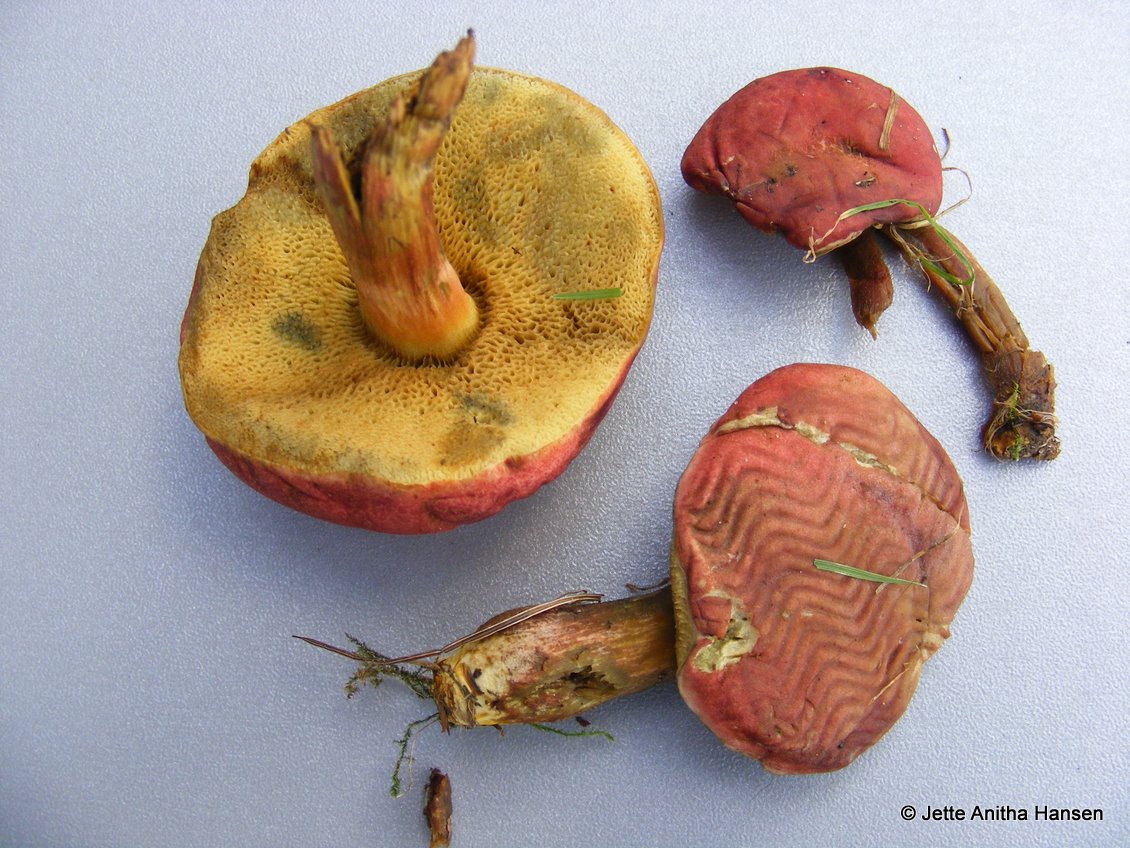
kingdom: Fungi
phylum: Basidiomycota
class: Agaricomycetes
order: Boletales
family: Boletaceae
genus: Hortiboletus
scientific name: Hortiboletus rubellus
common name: blodrød rørhat
